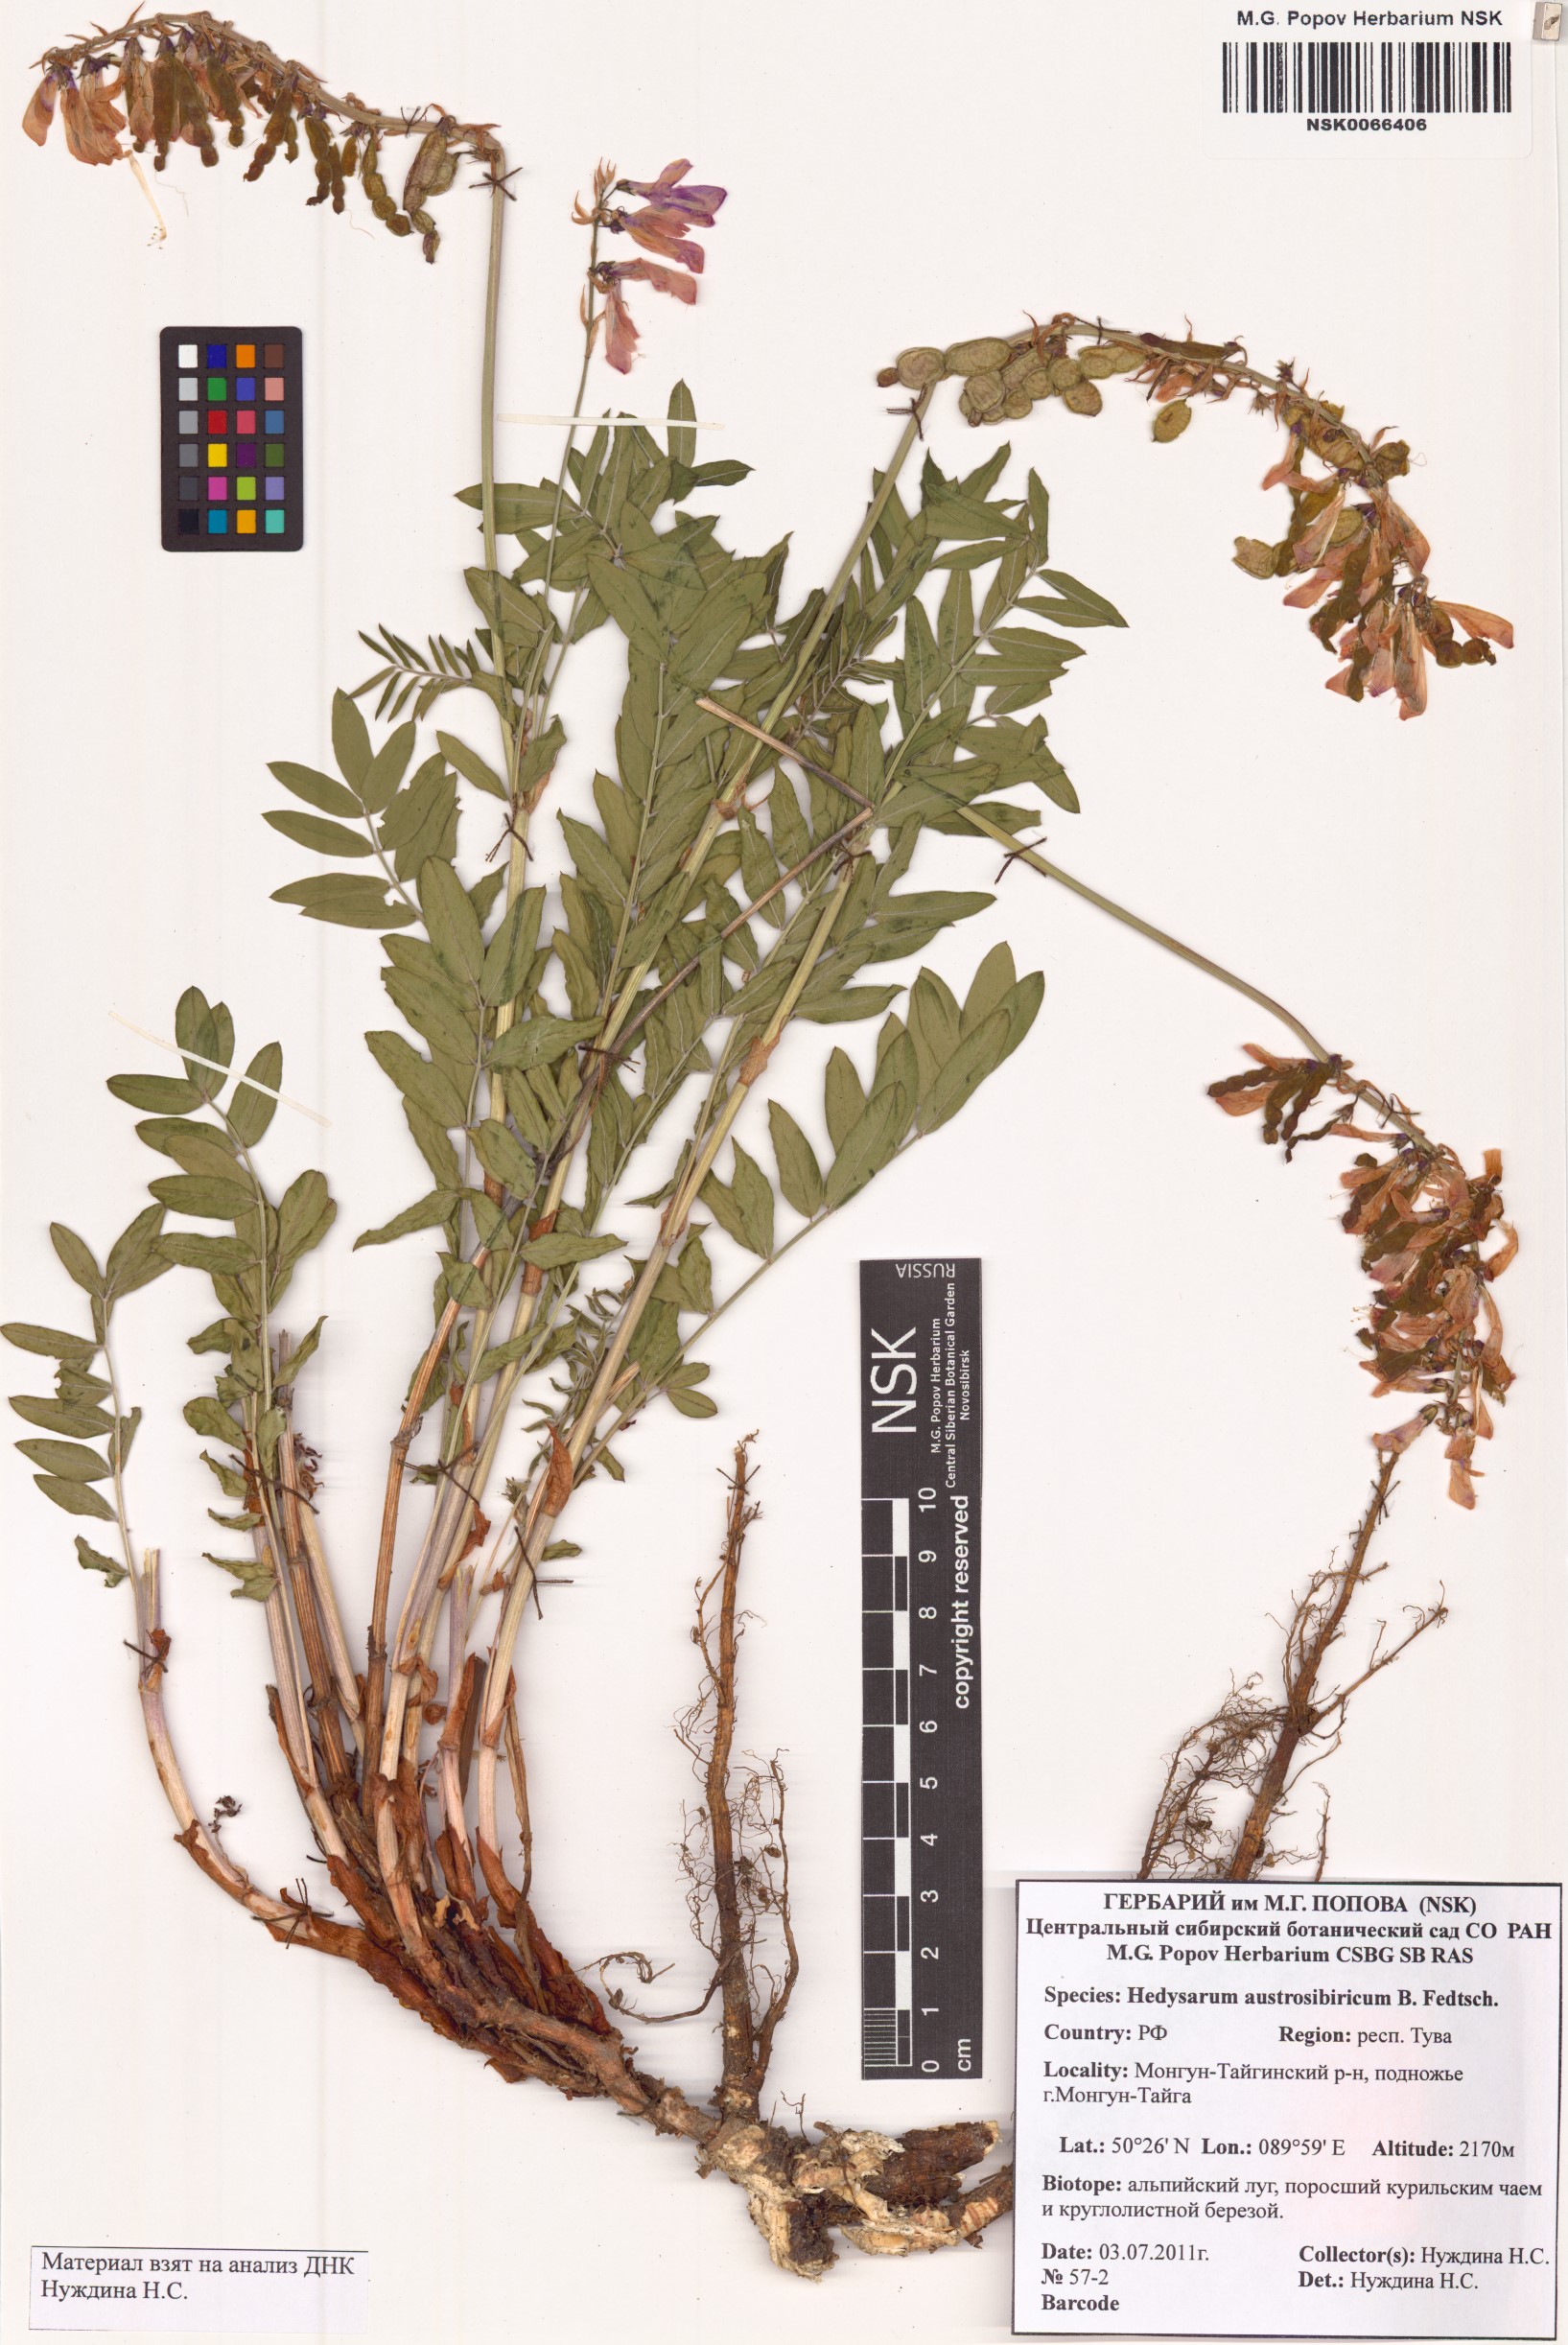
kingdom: Plantae
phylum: Tracheophyta
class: Magnoliopsida
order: Fabales
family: Fabaceae
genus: Hedysarum
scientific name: Hedysarum neglectum
